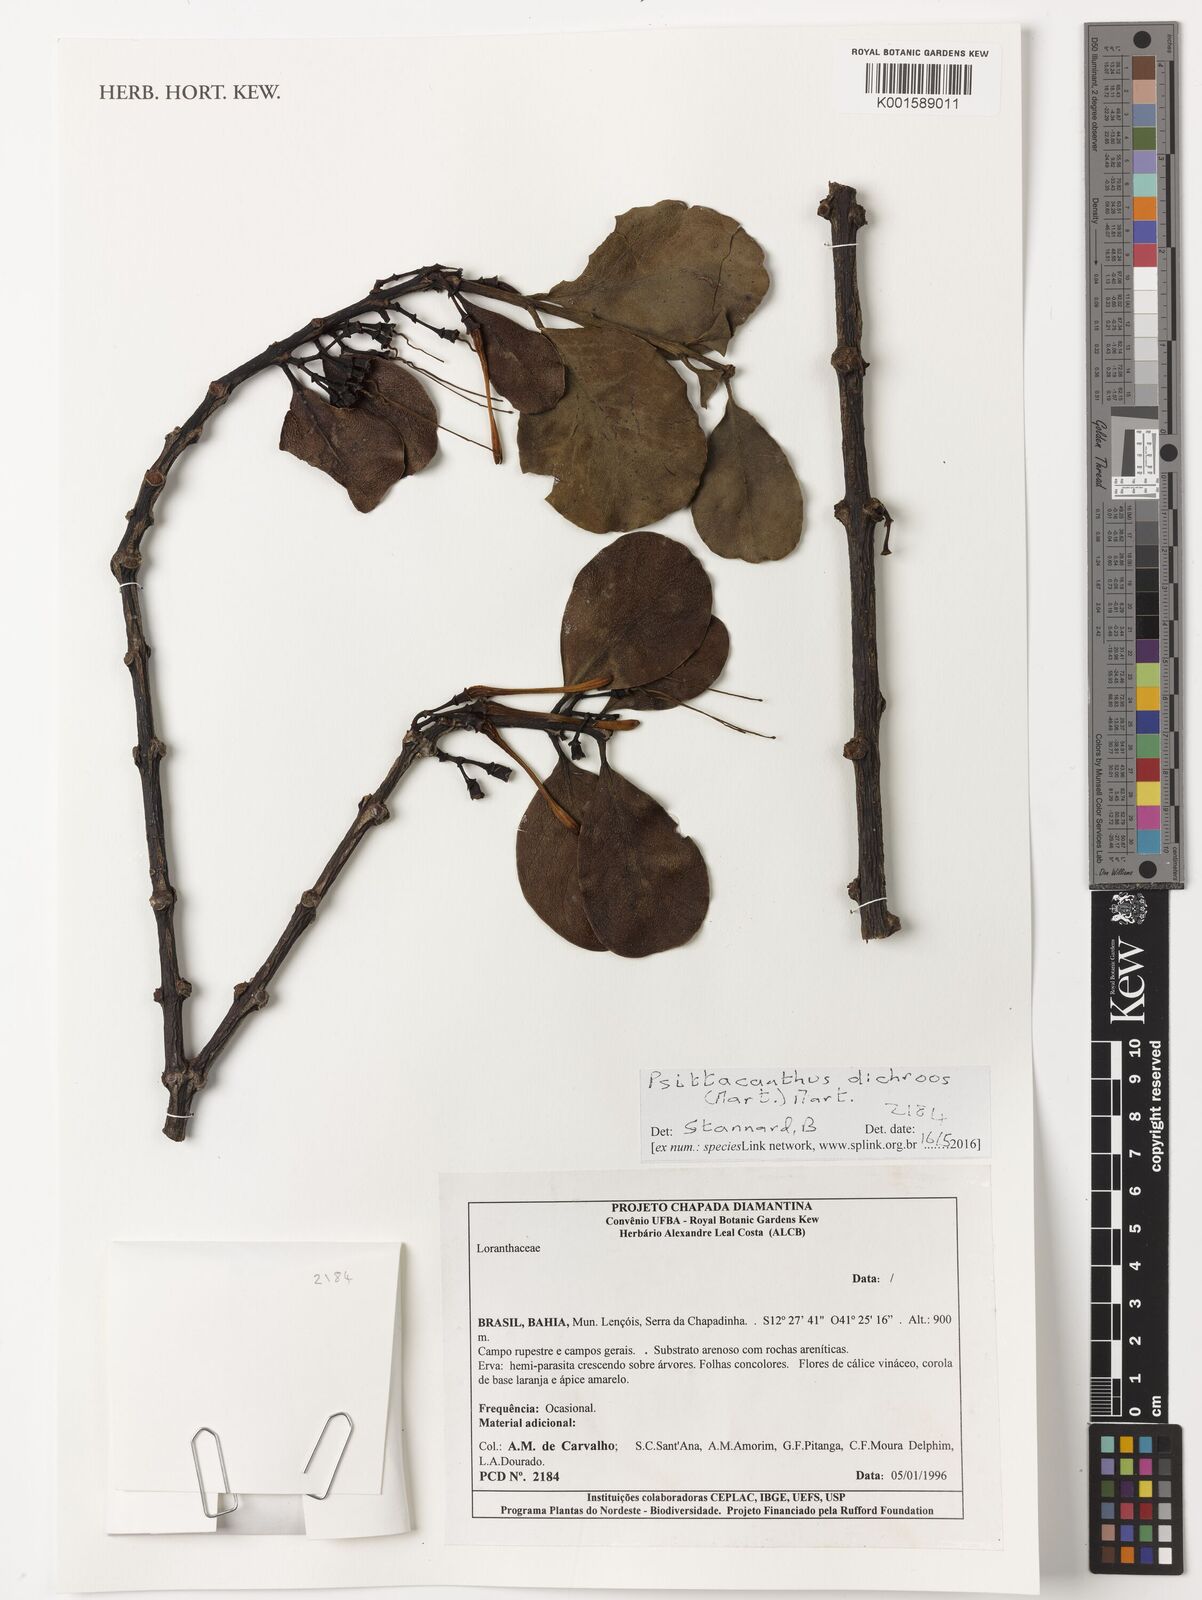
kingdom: Plantae
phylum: Tracheophyta
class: Magnoliopsida
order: Santalales
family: Loranthaceae
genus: Psittacanthus
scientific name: Psittacanthus dichrous
